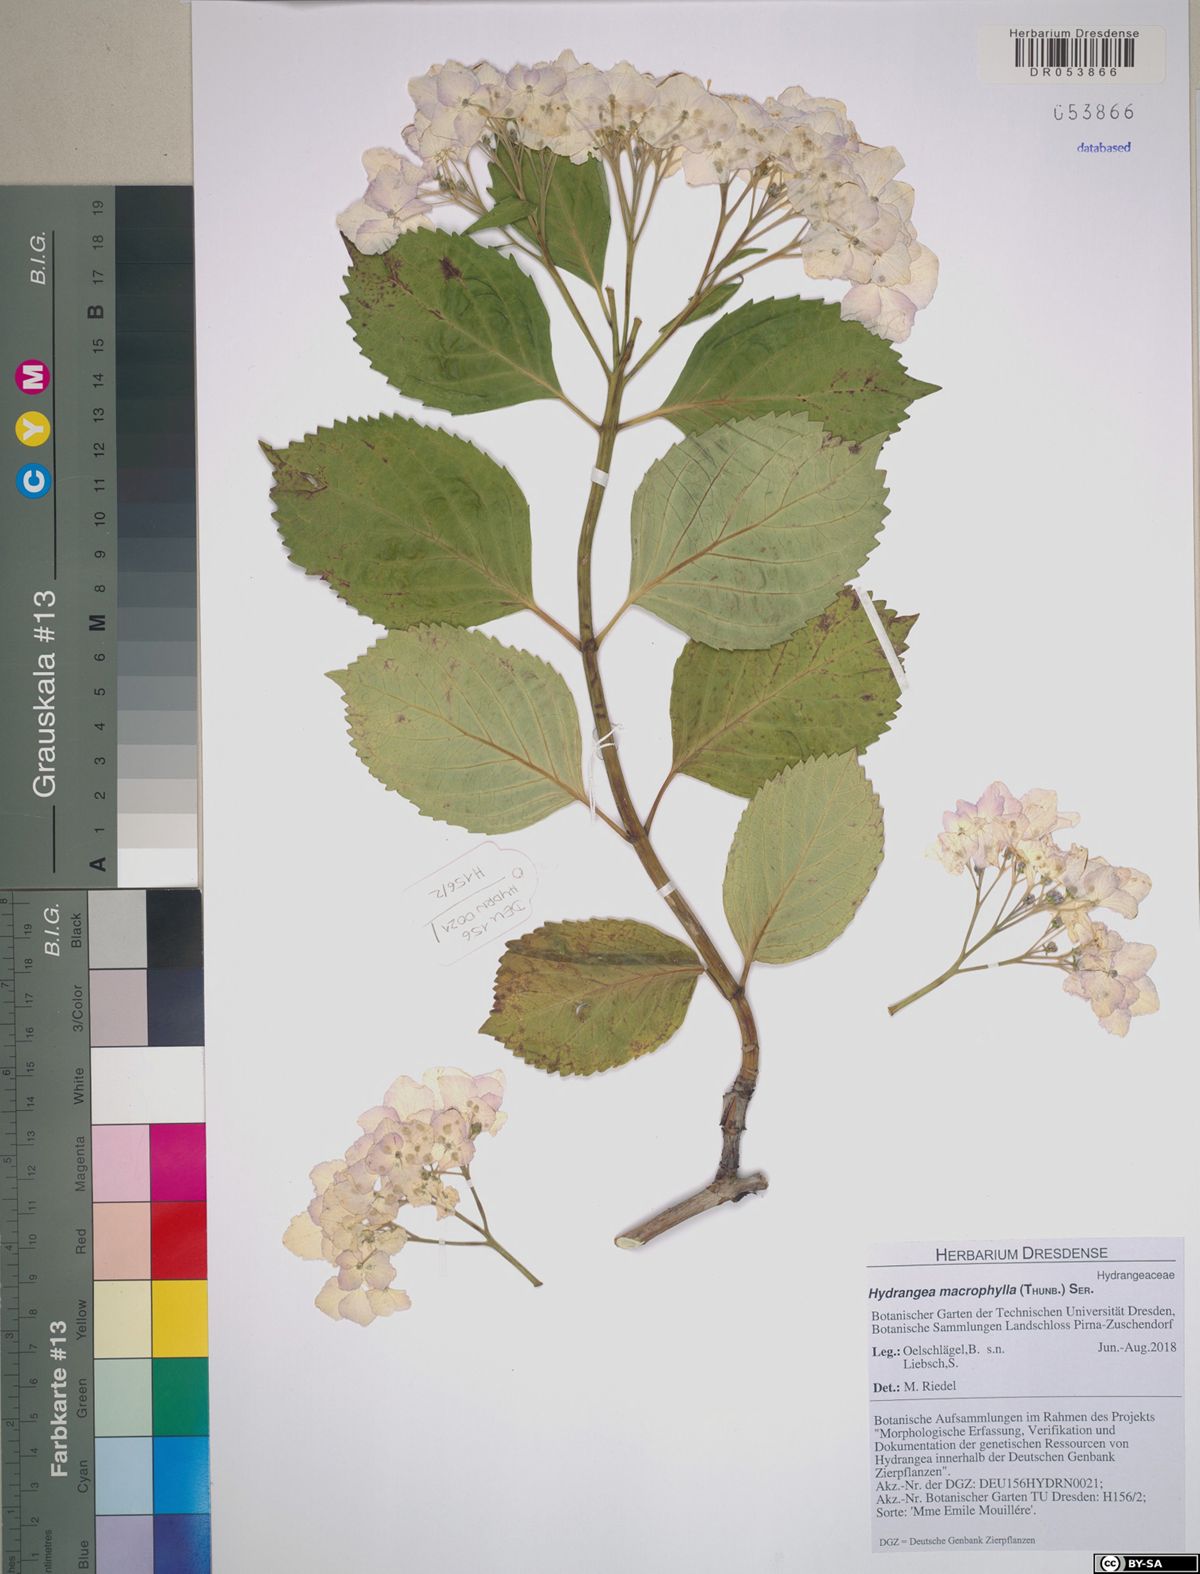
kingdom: Plantae
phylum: Tracheophyta
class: Magnoliopsida
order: Cornales
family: Hydrangeaceae
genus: Hydrangea
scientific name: Hydrangea macrophylla
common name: Hydrangea
